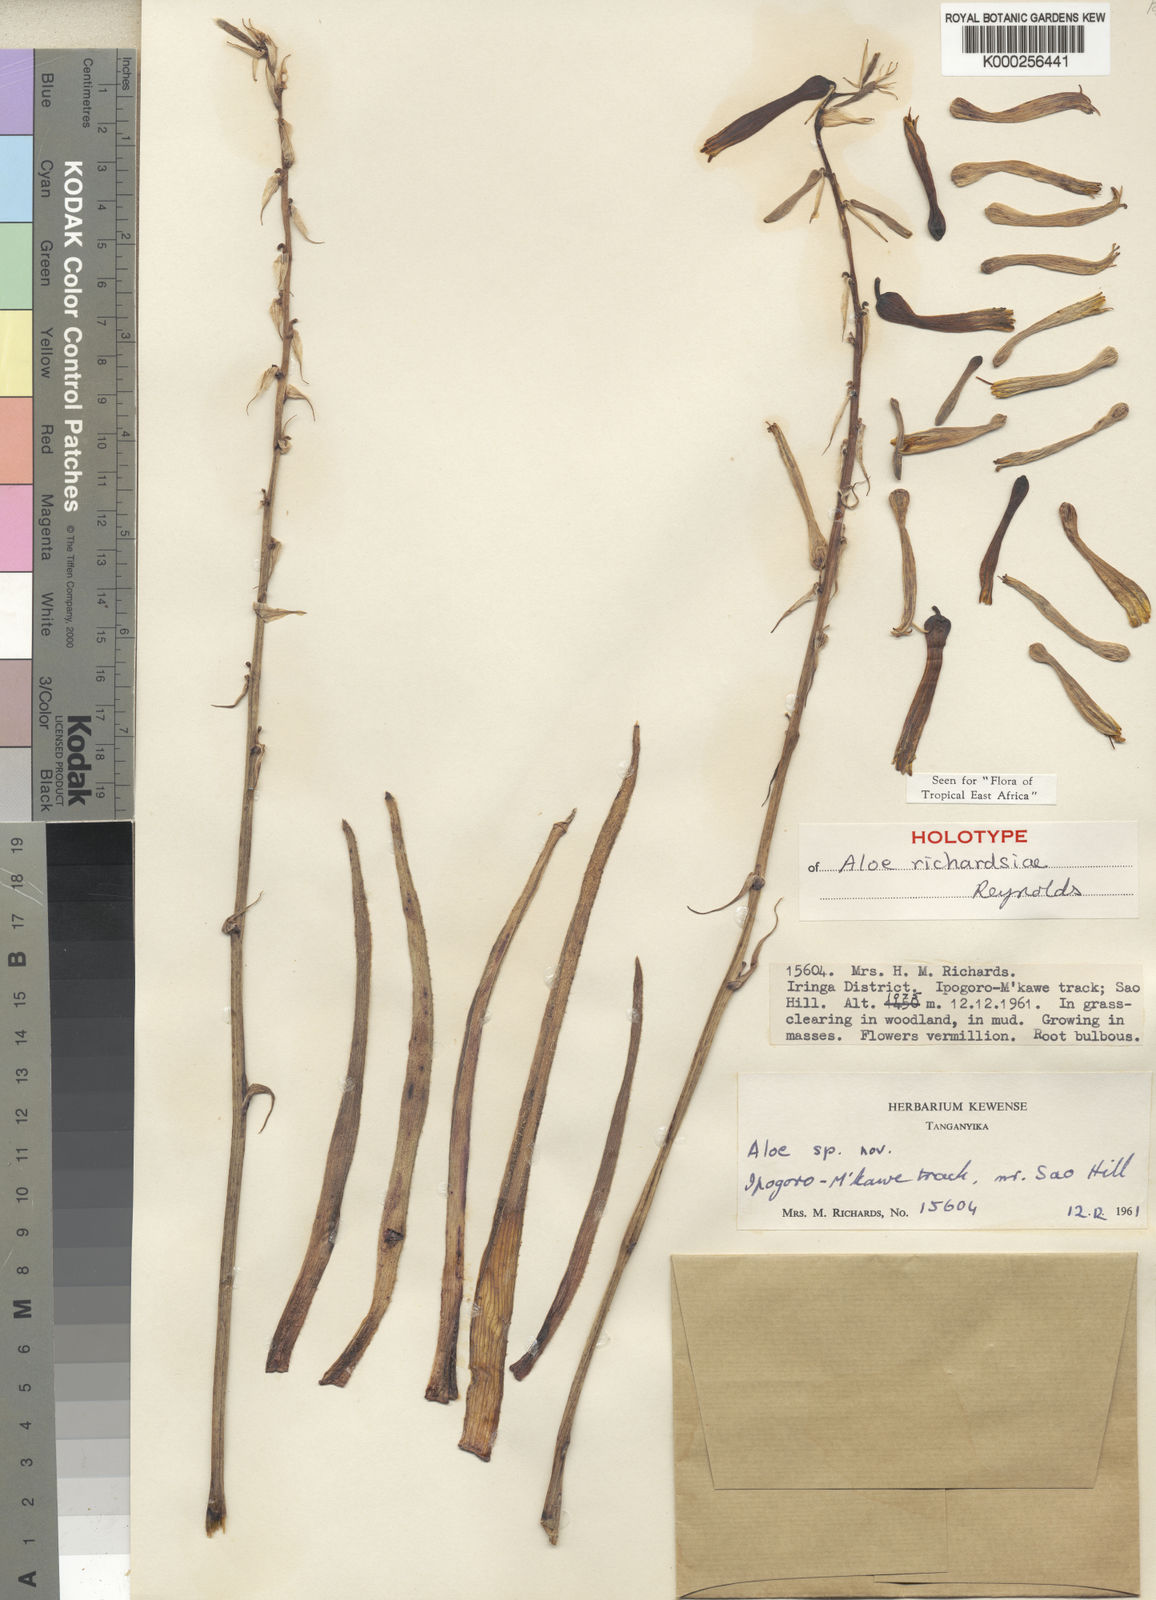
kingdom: Plantae
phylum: Tracheophyta
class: Liliopsida
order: Asparagales
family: Asphodelaceae
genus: Aloe
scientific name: Aloe richardsiae
